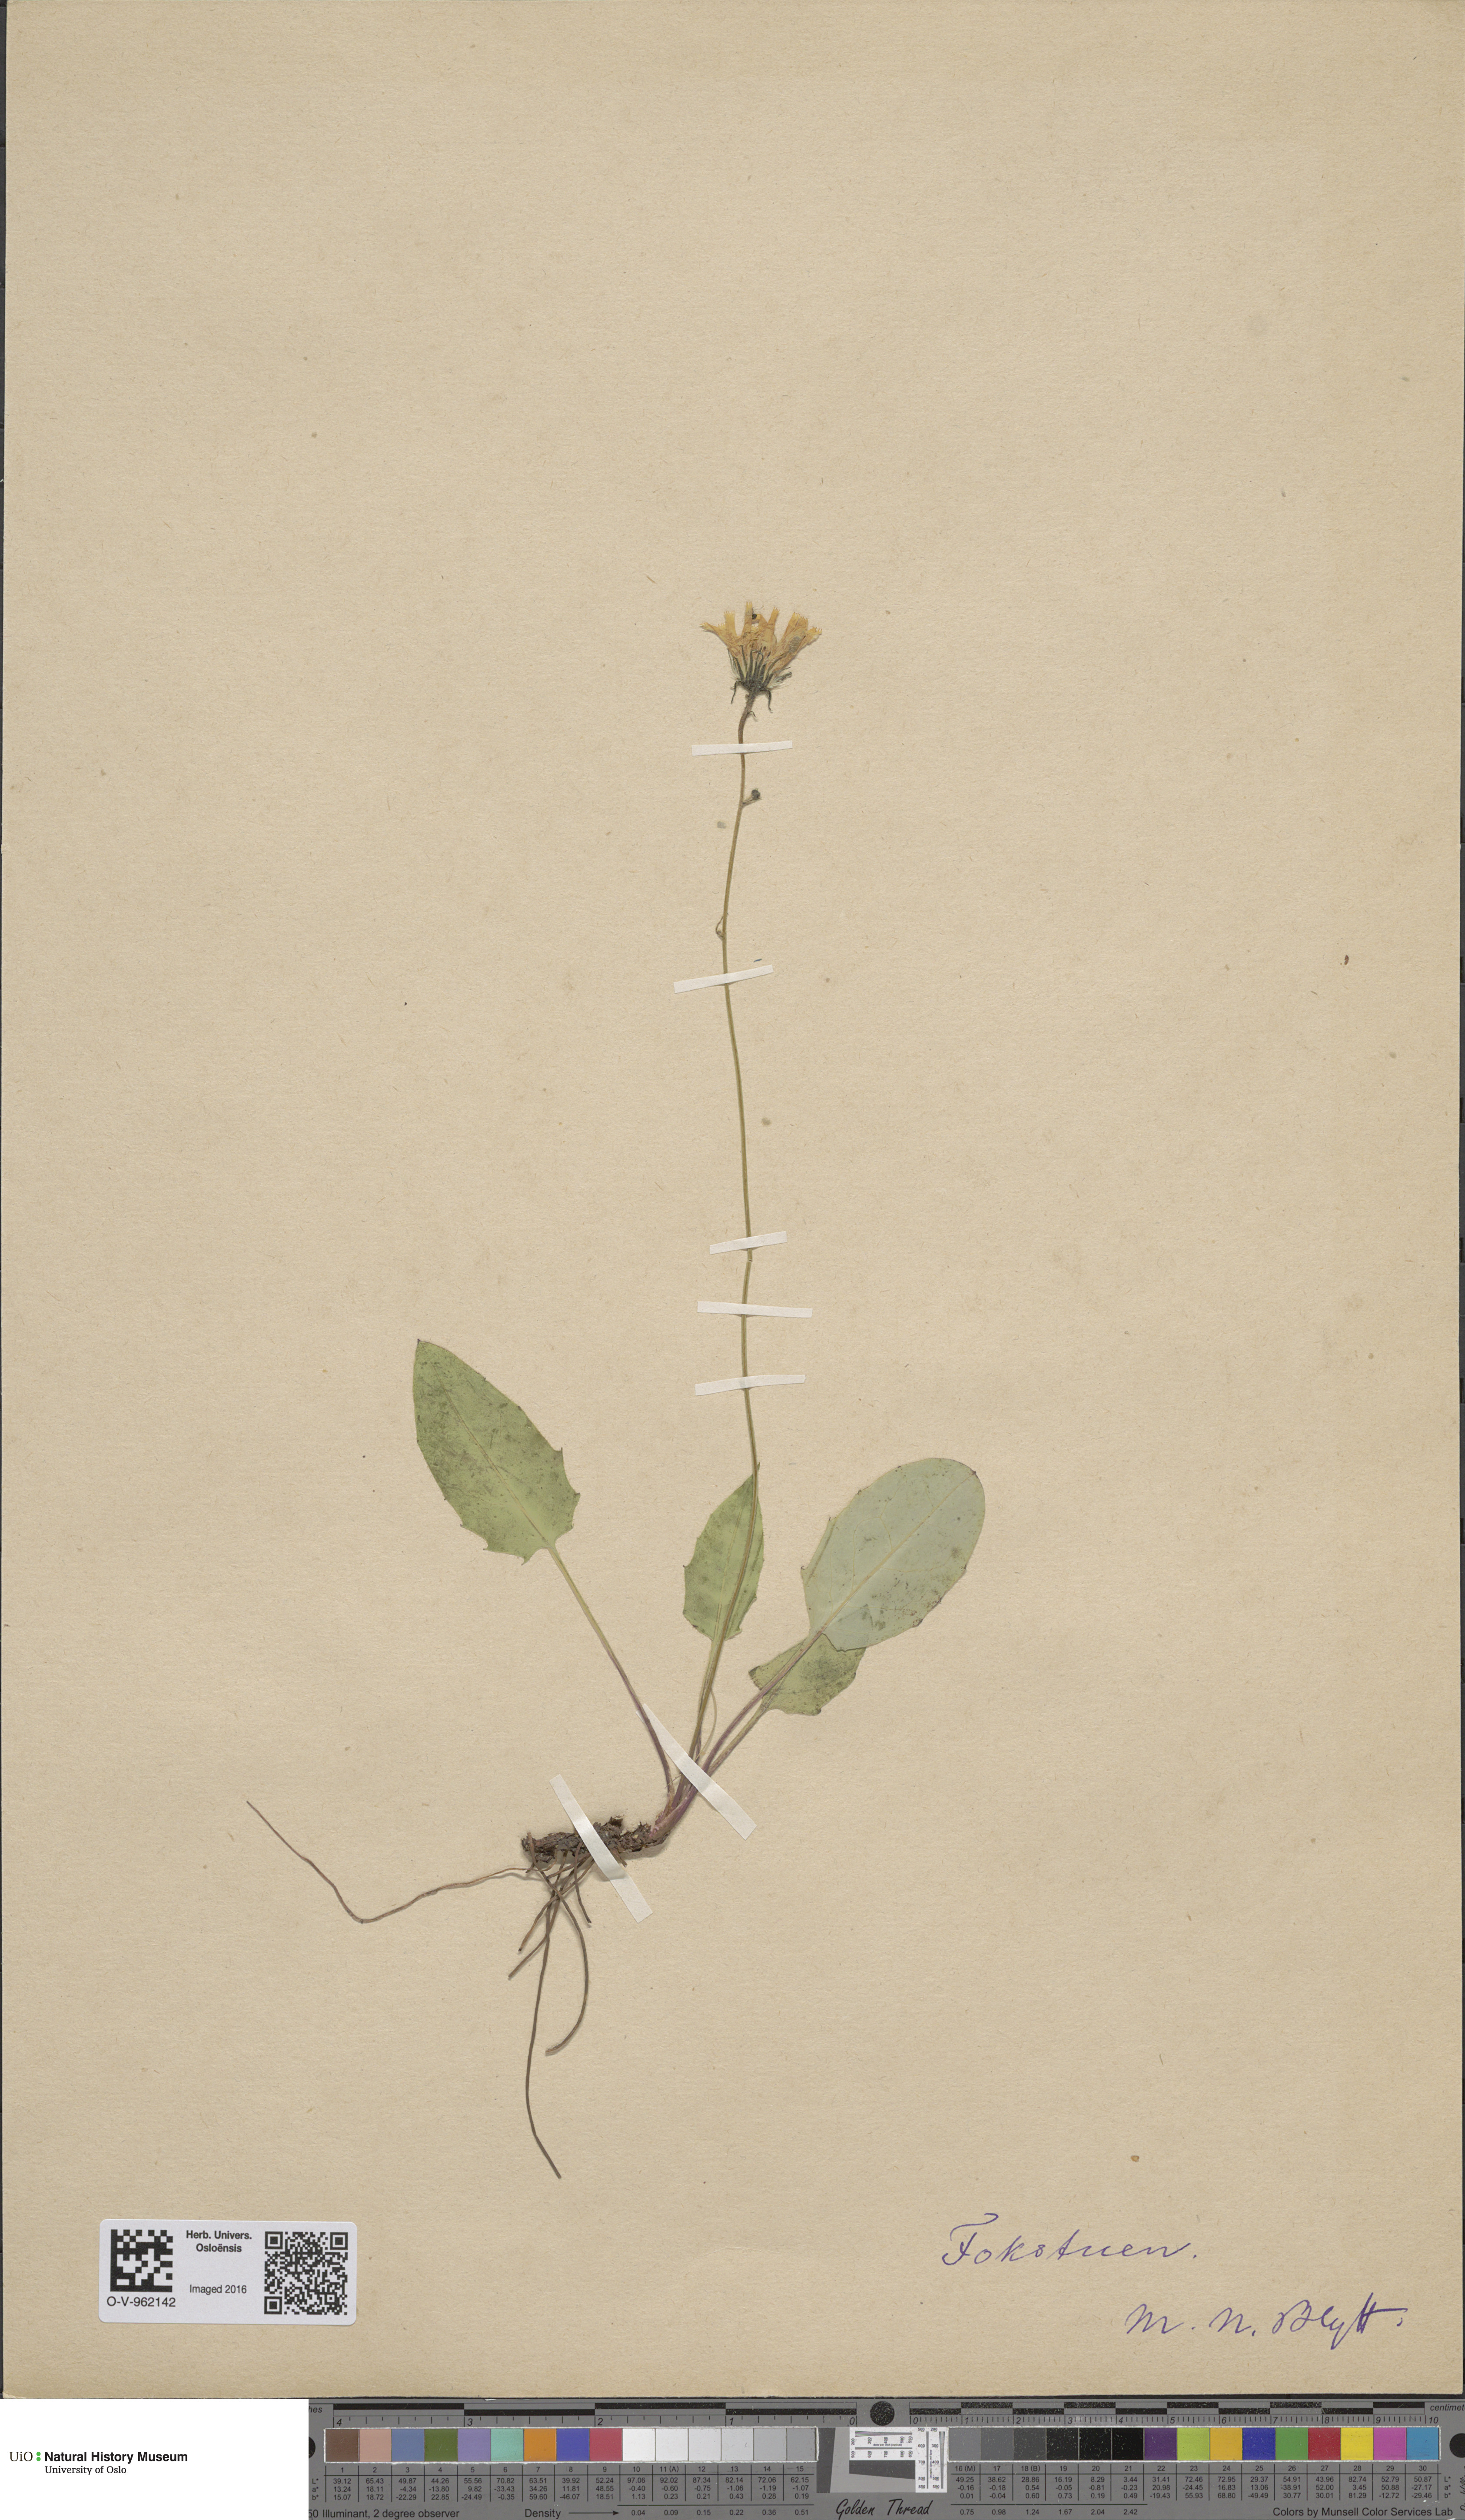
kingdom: Plantae
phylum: Tracheophyta
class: Magnoliopsida
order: Asterales
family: Asteraceae
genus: Hieracium
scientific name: Hieracium
